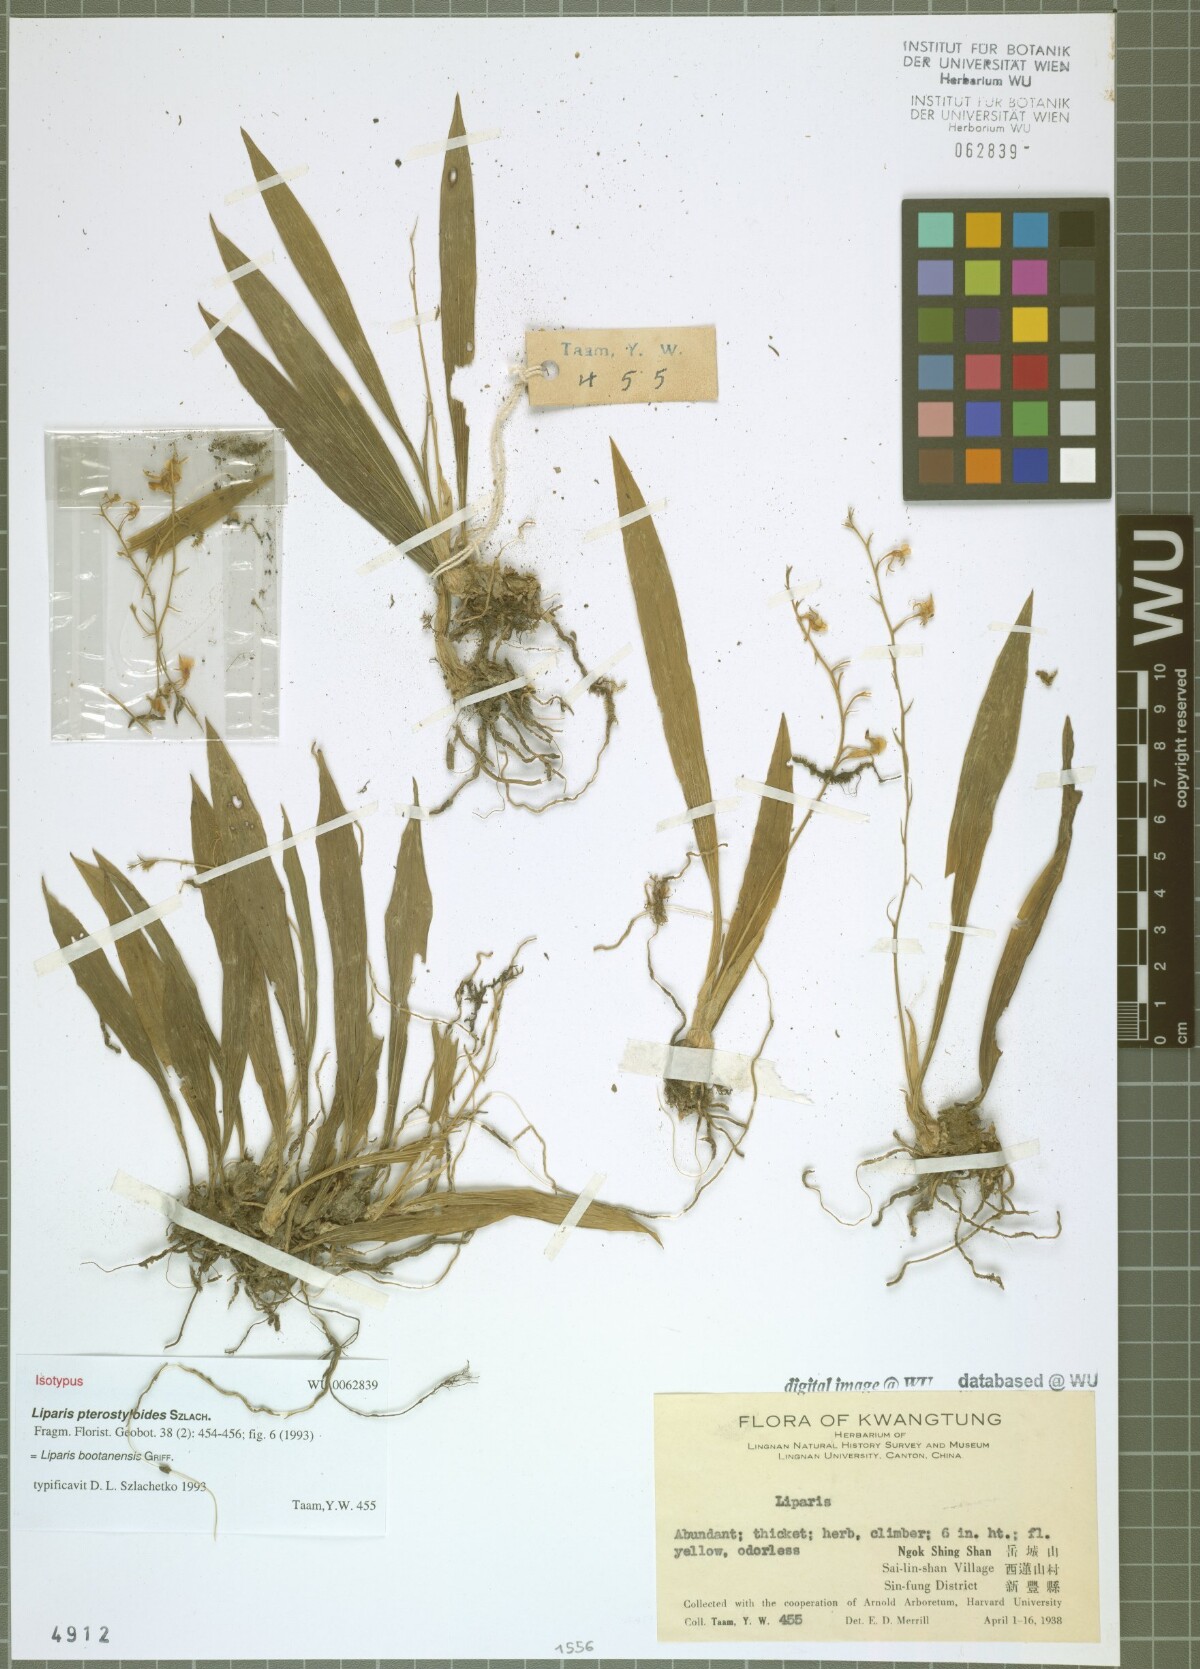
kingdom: Plantae
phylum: Tracheophyta
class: Liliopsida
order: Asparagales
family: Orchidaceae
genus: Liparis
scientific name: Liparis bootanensis
